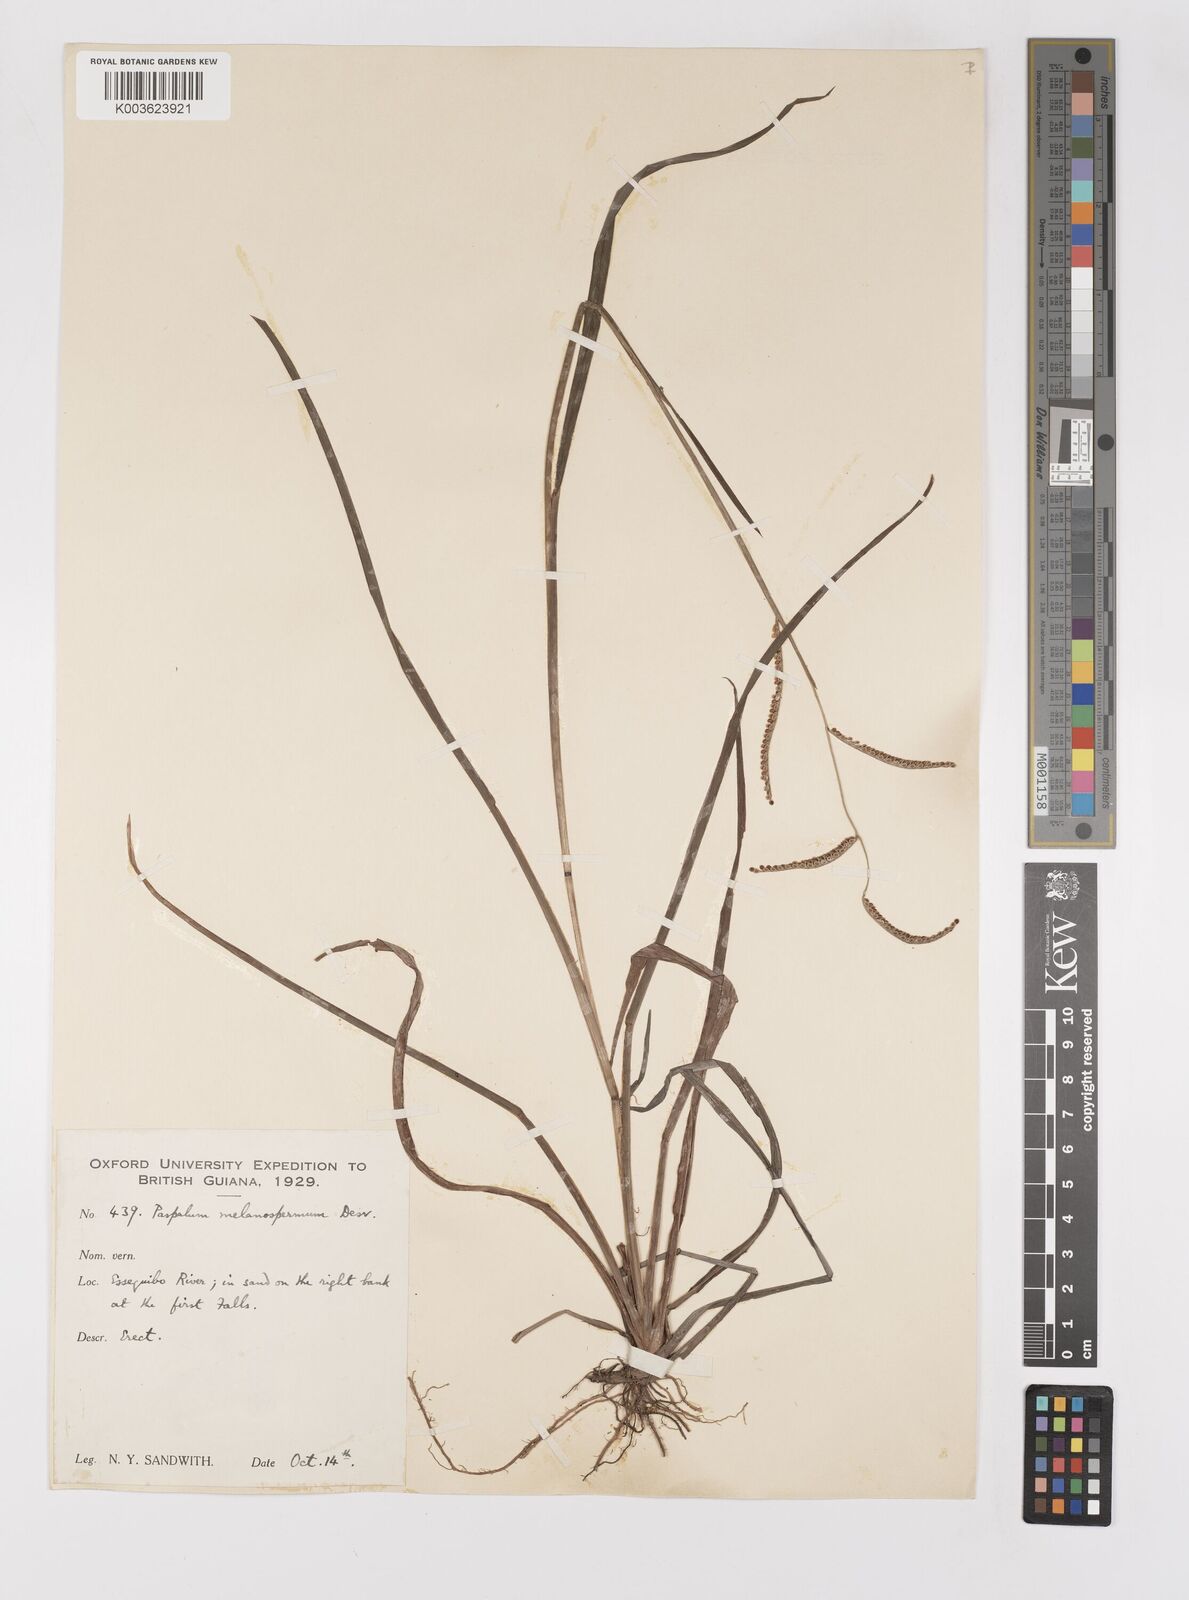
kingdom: Plantae
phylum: Tracheophyta
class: Liliopsida
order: Poales
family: Poaceae
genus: Paspalum
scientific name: Paspalum melanospermum
